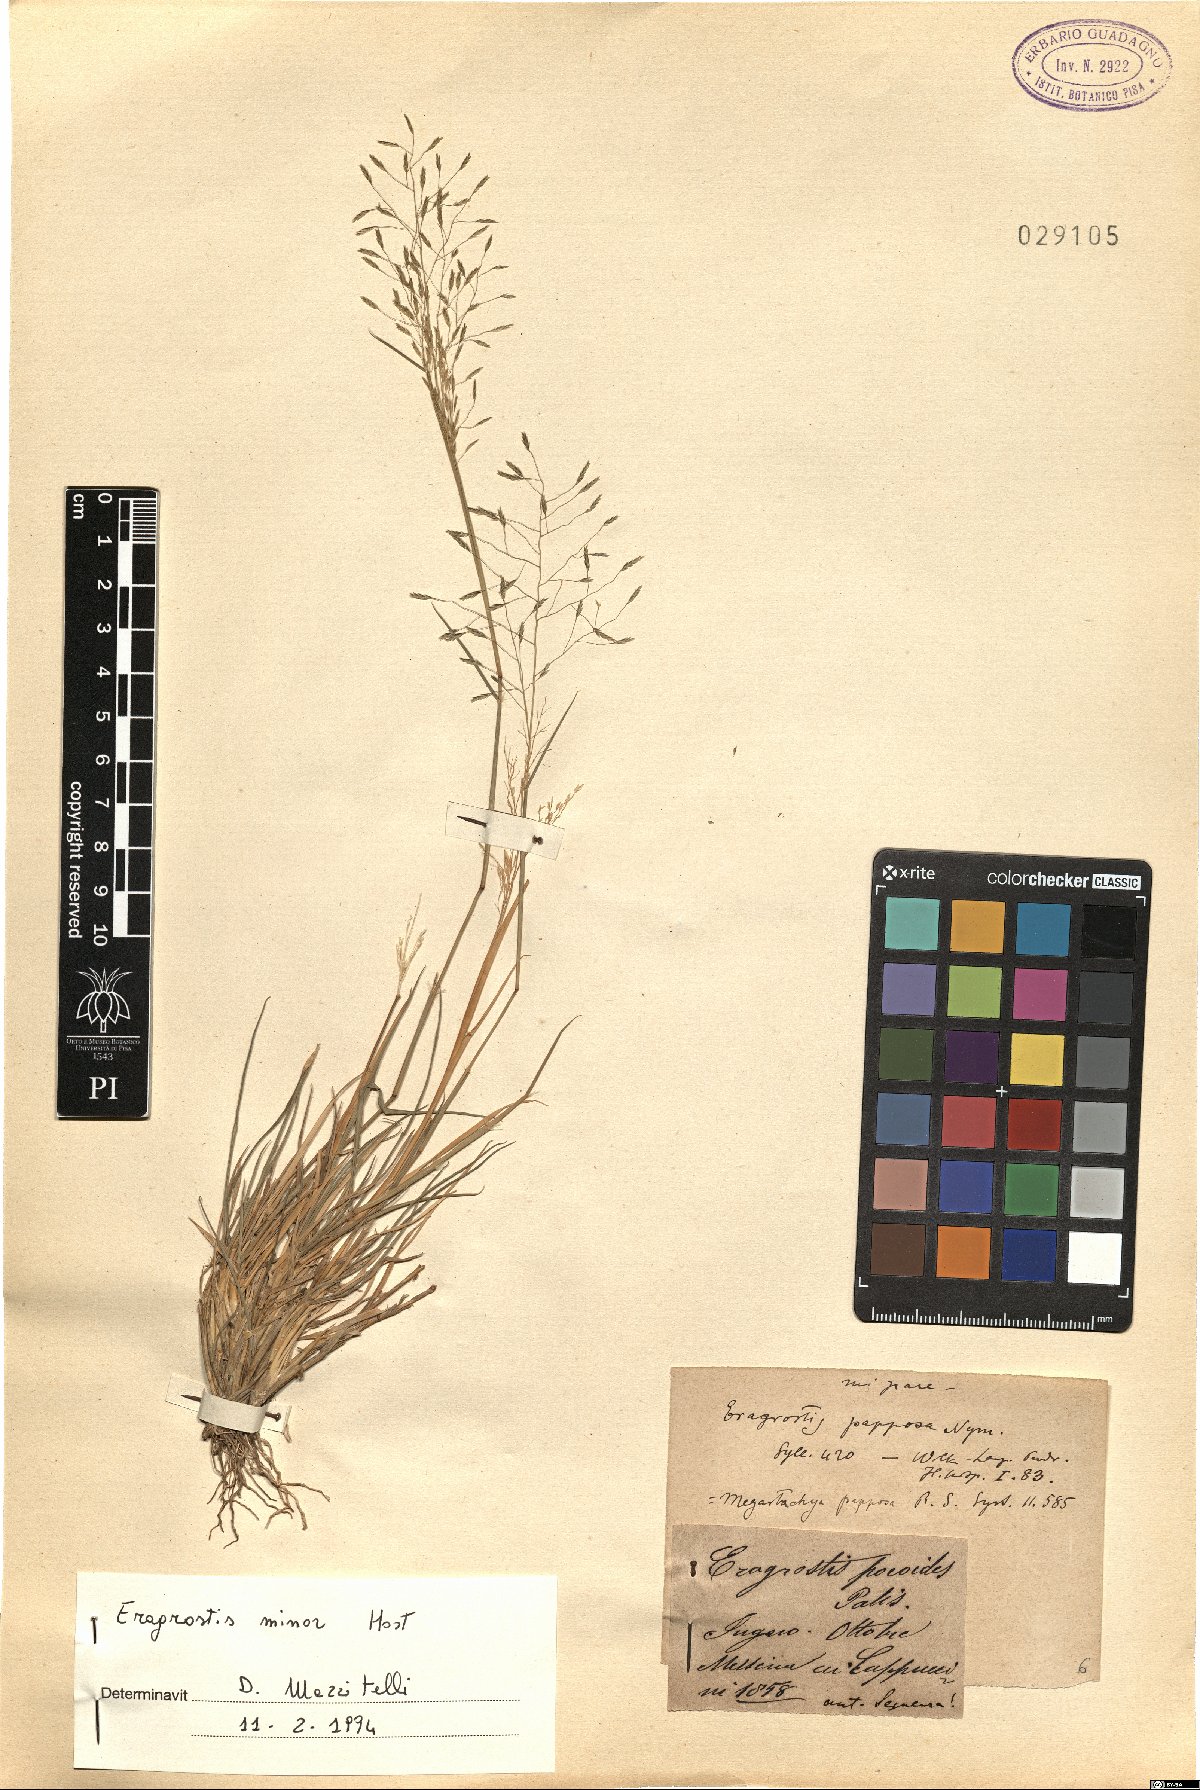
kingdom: Plantae
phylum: Tracheophyta
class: Liliopsida
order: Poales
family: Poaceae
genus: Eragrostis
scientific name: Eragrostis minor
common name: Small love-grass
